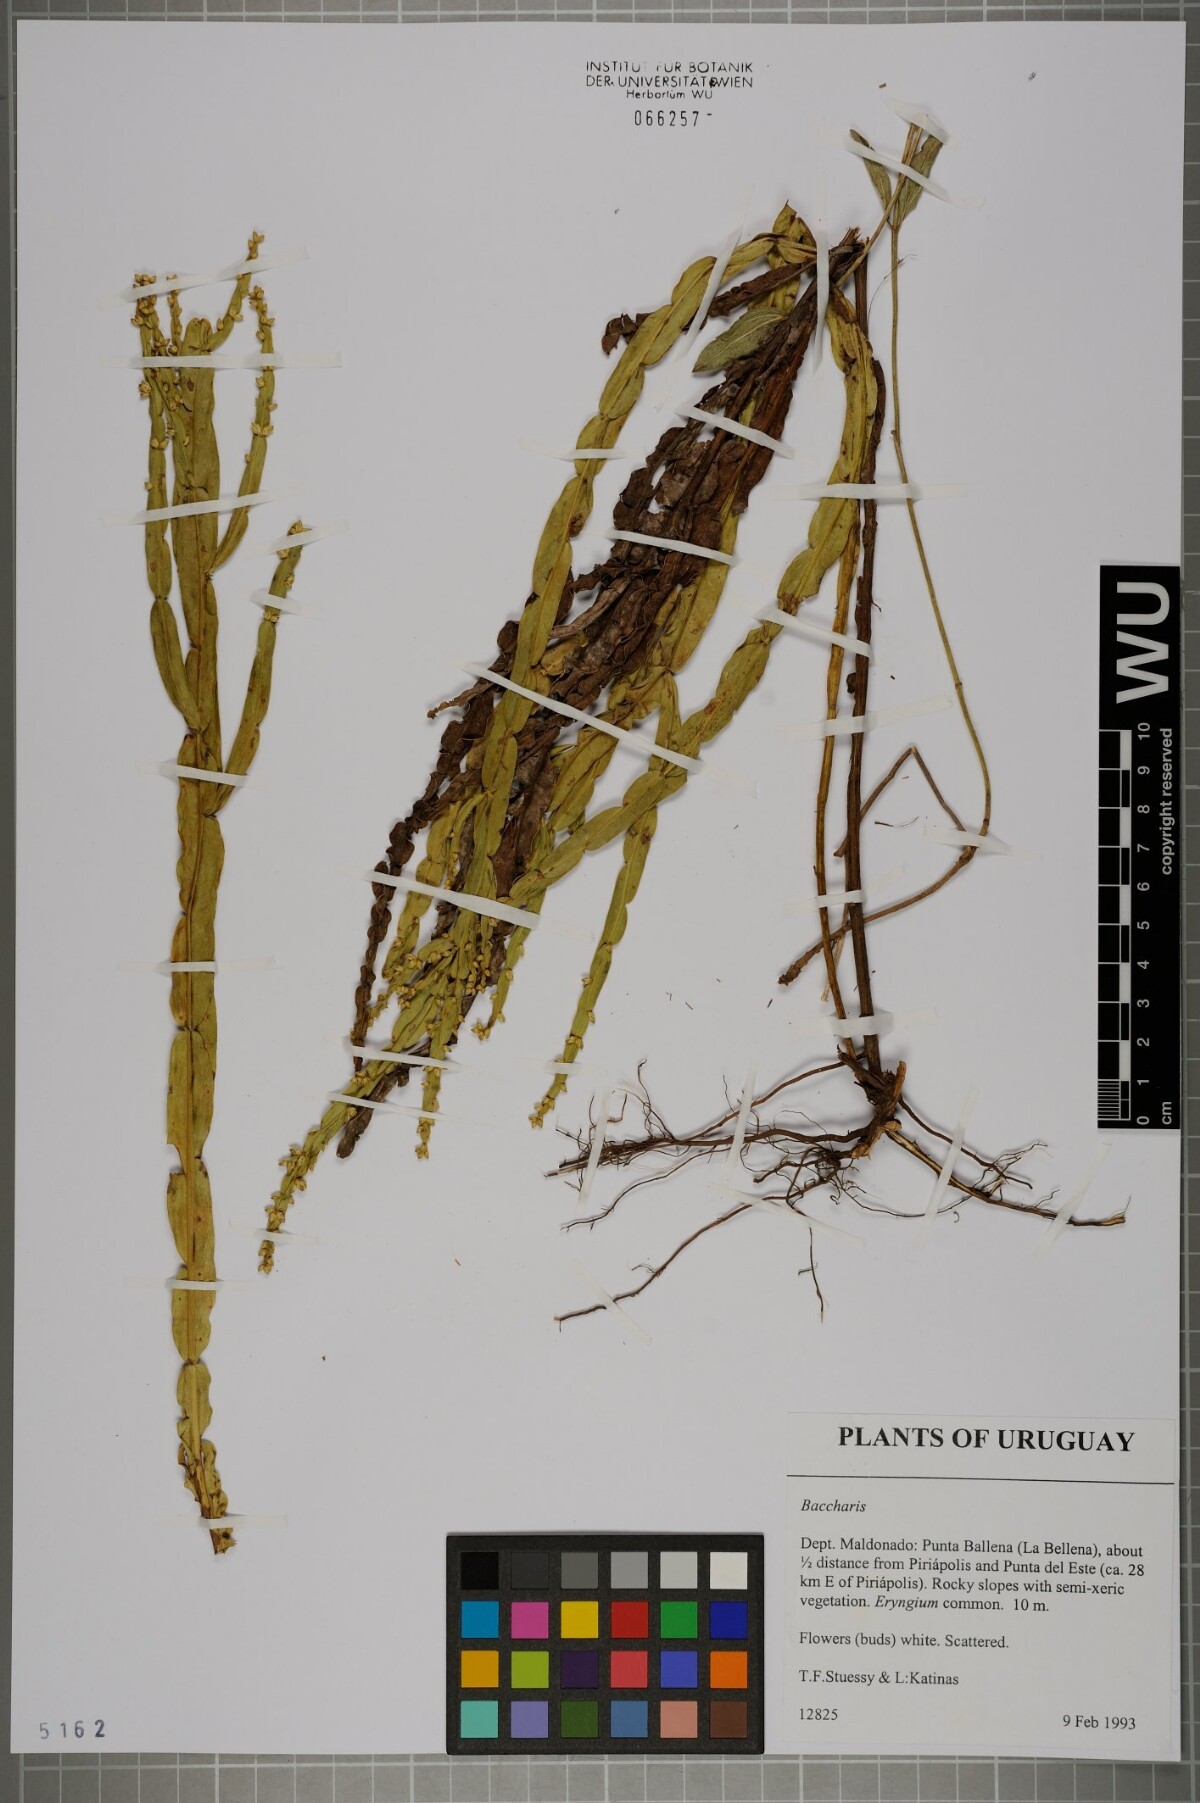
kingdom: Plantae
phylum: Tracheophyta
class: Magnoliopsida
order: Asterales
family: Asteraceae
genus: Baccharis
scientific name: Baccharis
